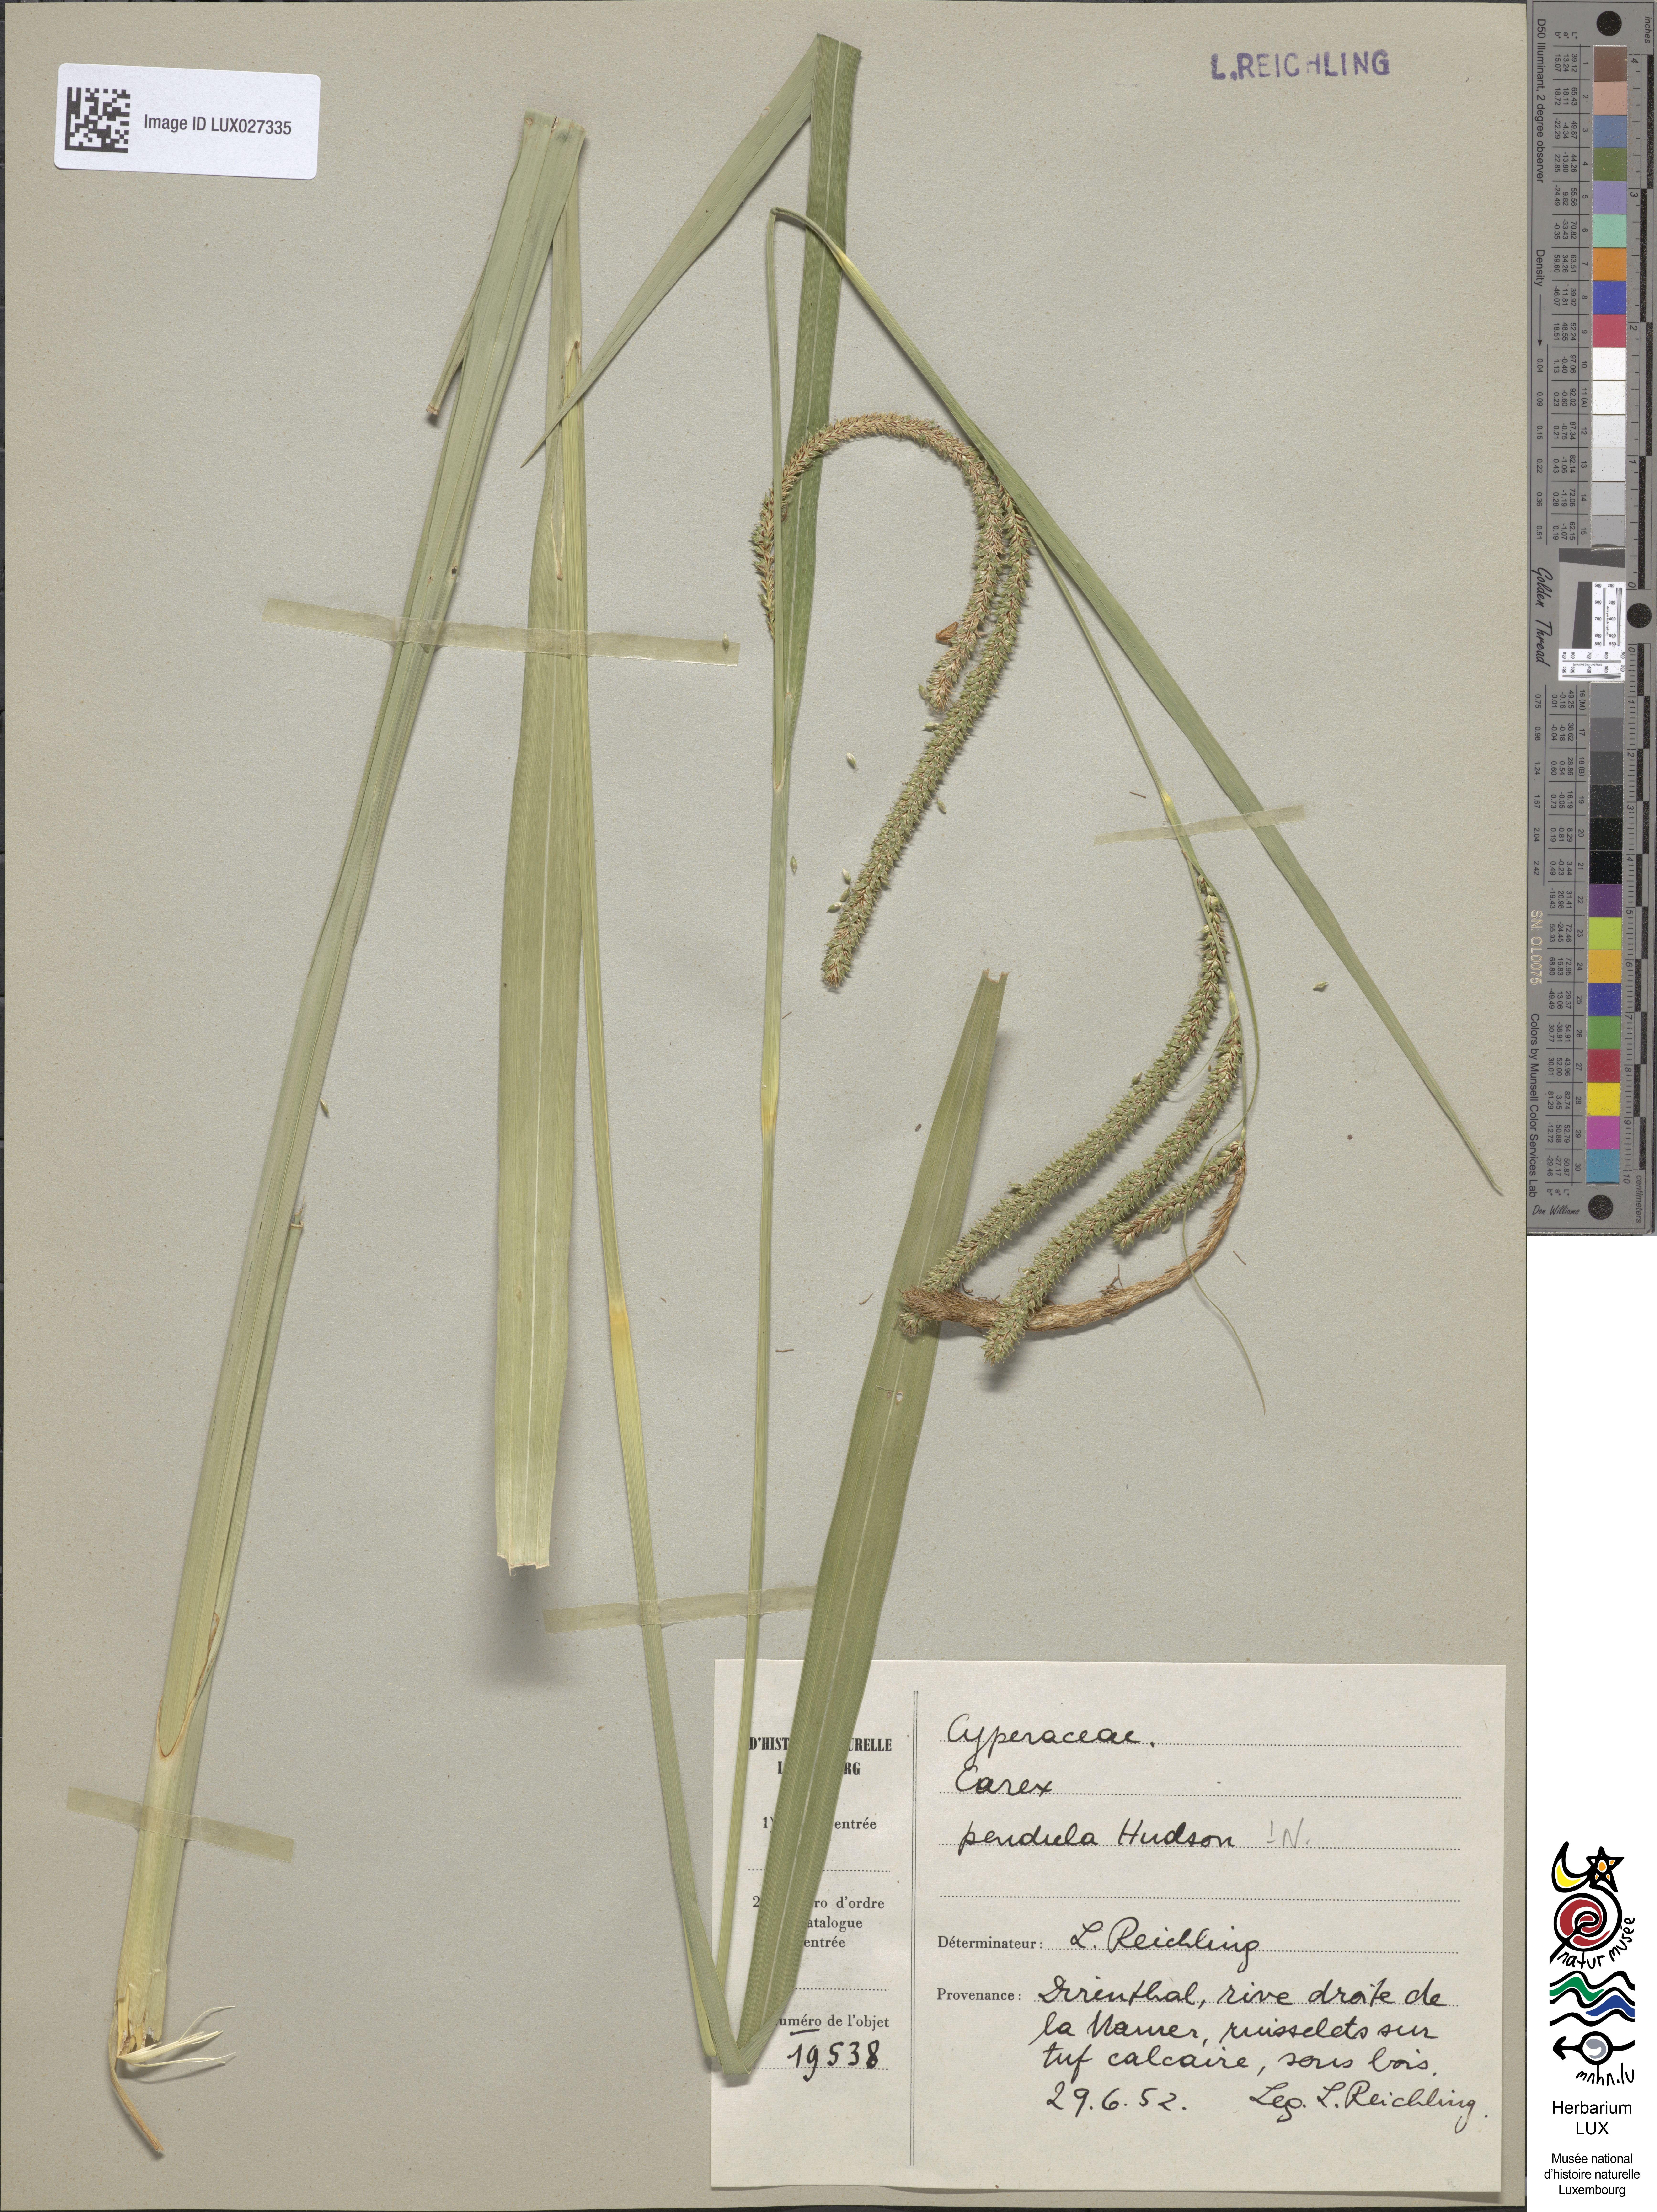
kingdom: Plantae
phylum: Tracheophyta
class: Liliopsida
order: Poales
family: Cyperaceae
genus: Carex
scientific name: Carex pendula
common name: Pendulous sedge
